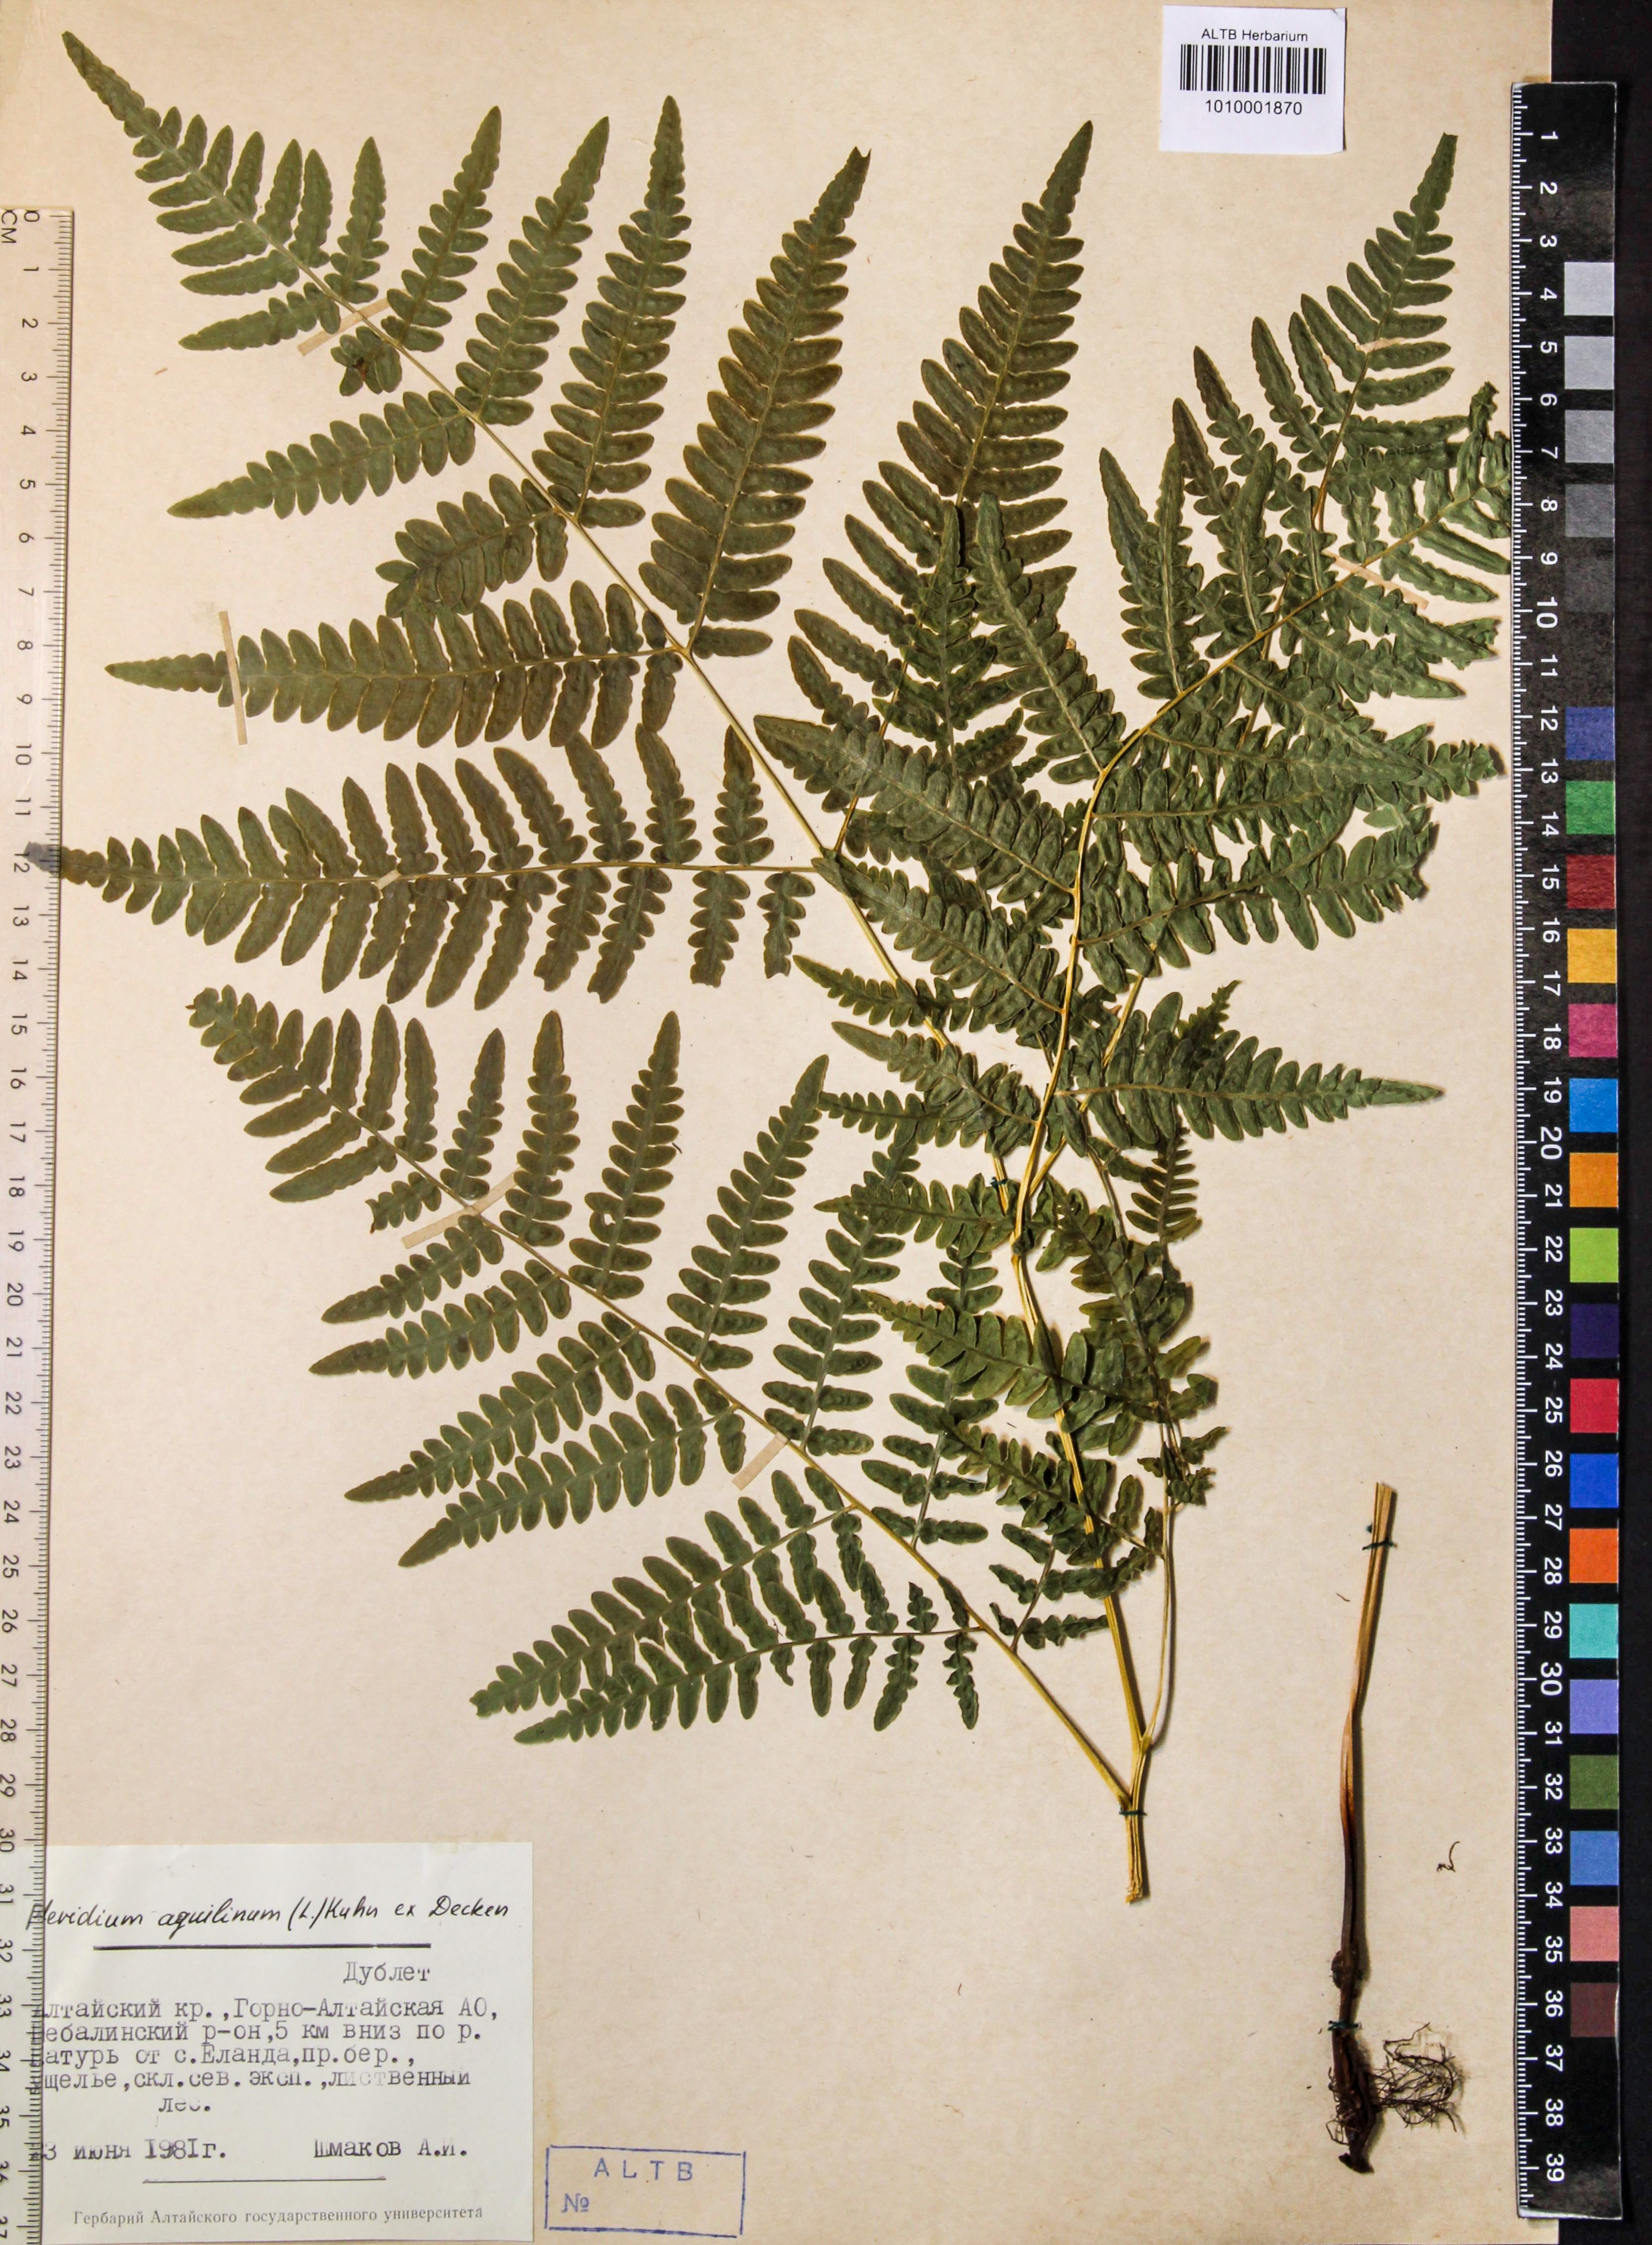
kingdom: Plantae
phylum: Tracheophyta
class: Polypodiopsida
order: Polypodiales
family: Dennstaedtiaceae
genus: Pteridium
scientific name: Pteridium aquilinum
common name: Bracken
